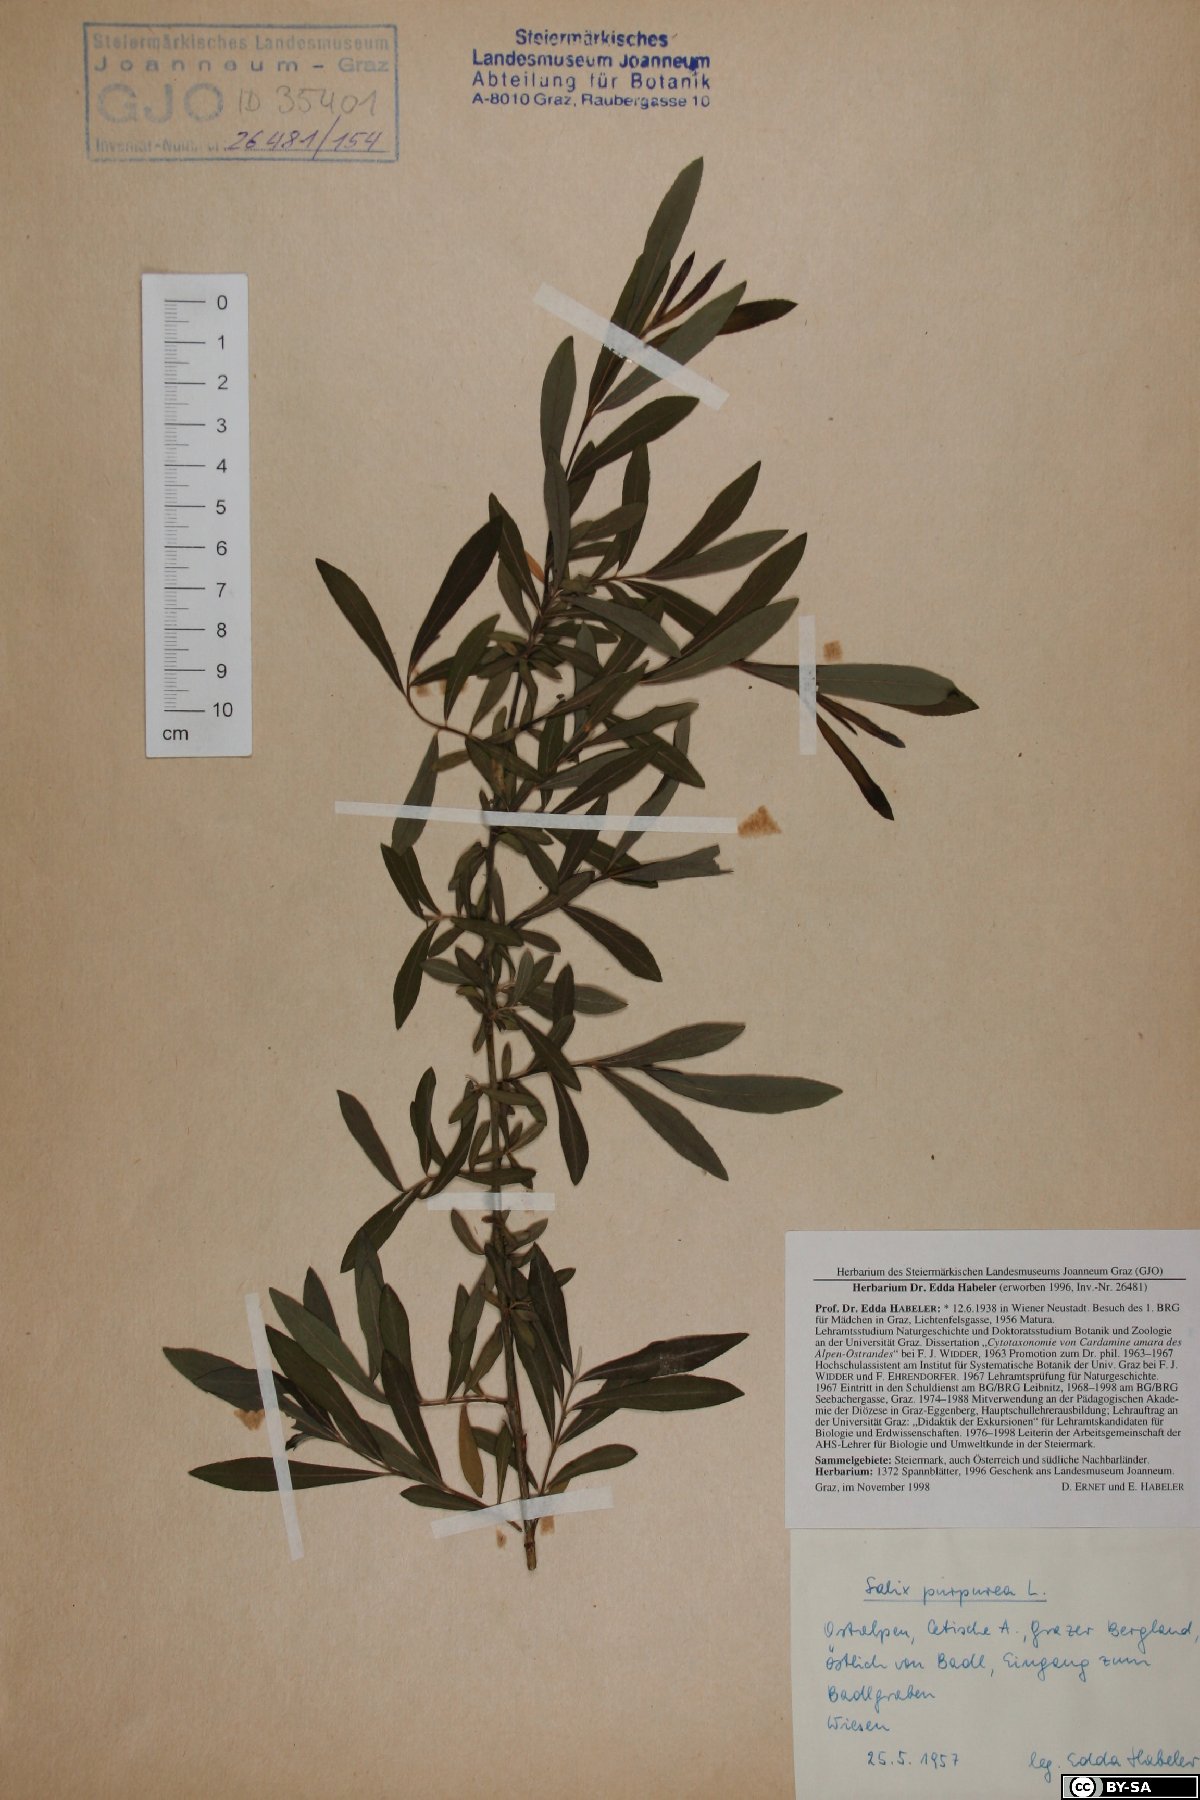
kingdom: Plantae
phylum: Tracheophyta
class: Magnoliopsida
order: Malpighiales
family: Salicaceae
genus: Salix
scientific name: Salix purpurea
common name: Purple willow
